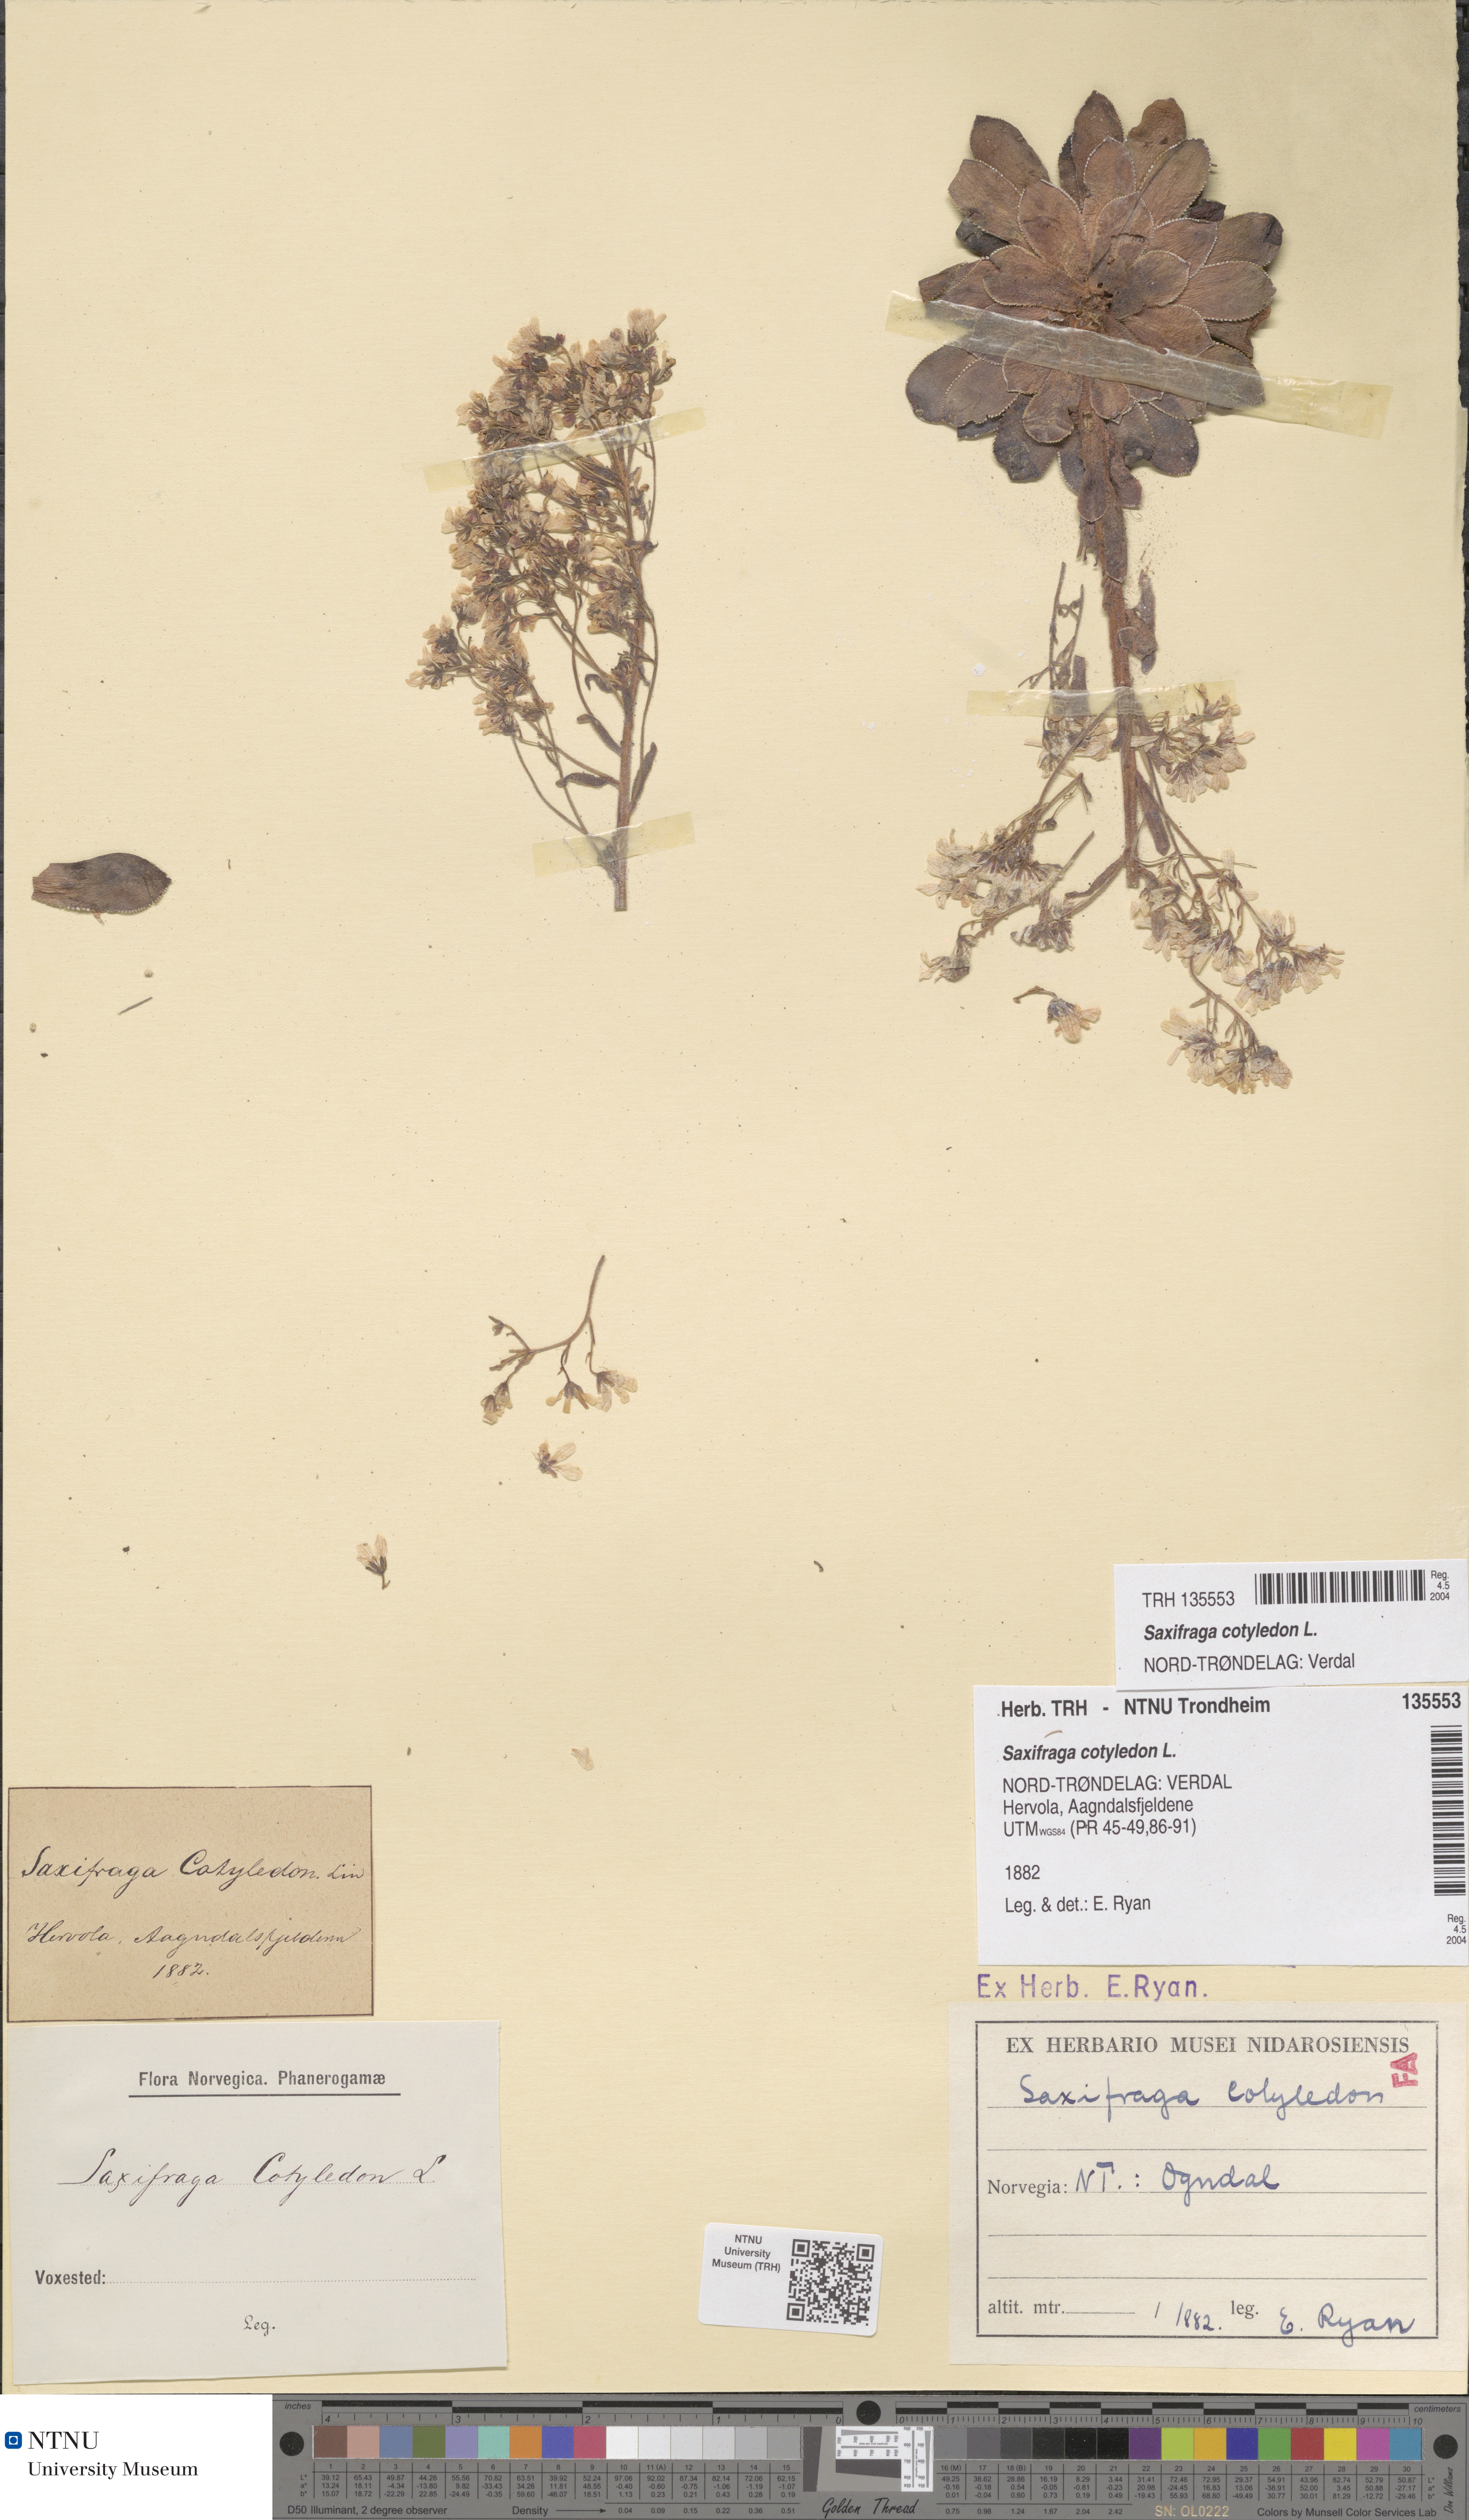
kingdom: Plantae
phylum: Tracheophyta
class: Magnoliopsida
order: Saxifragales
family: Saxifragaceae
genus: Saxifraga
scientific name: Saxifraga cotyledon
